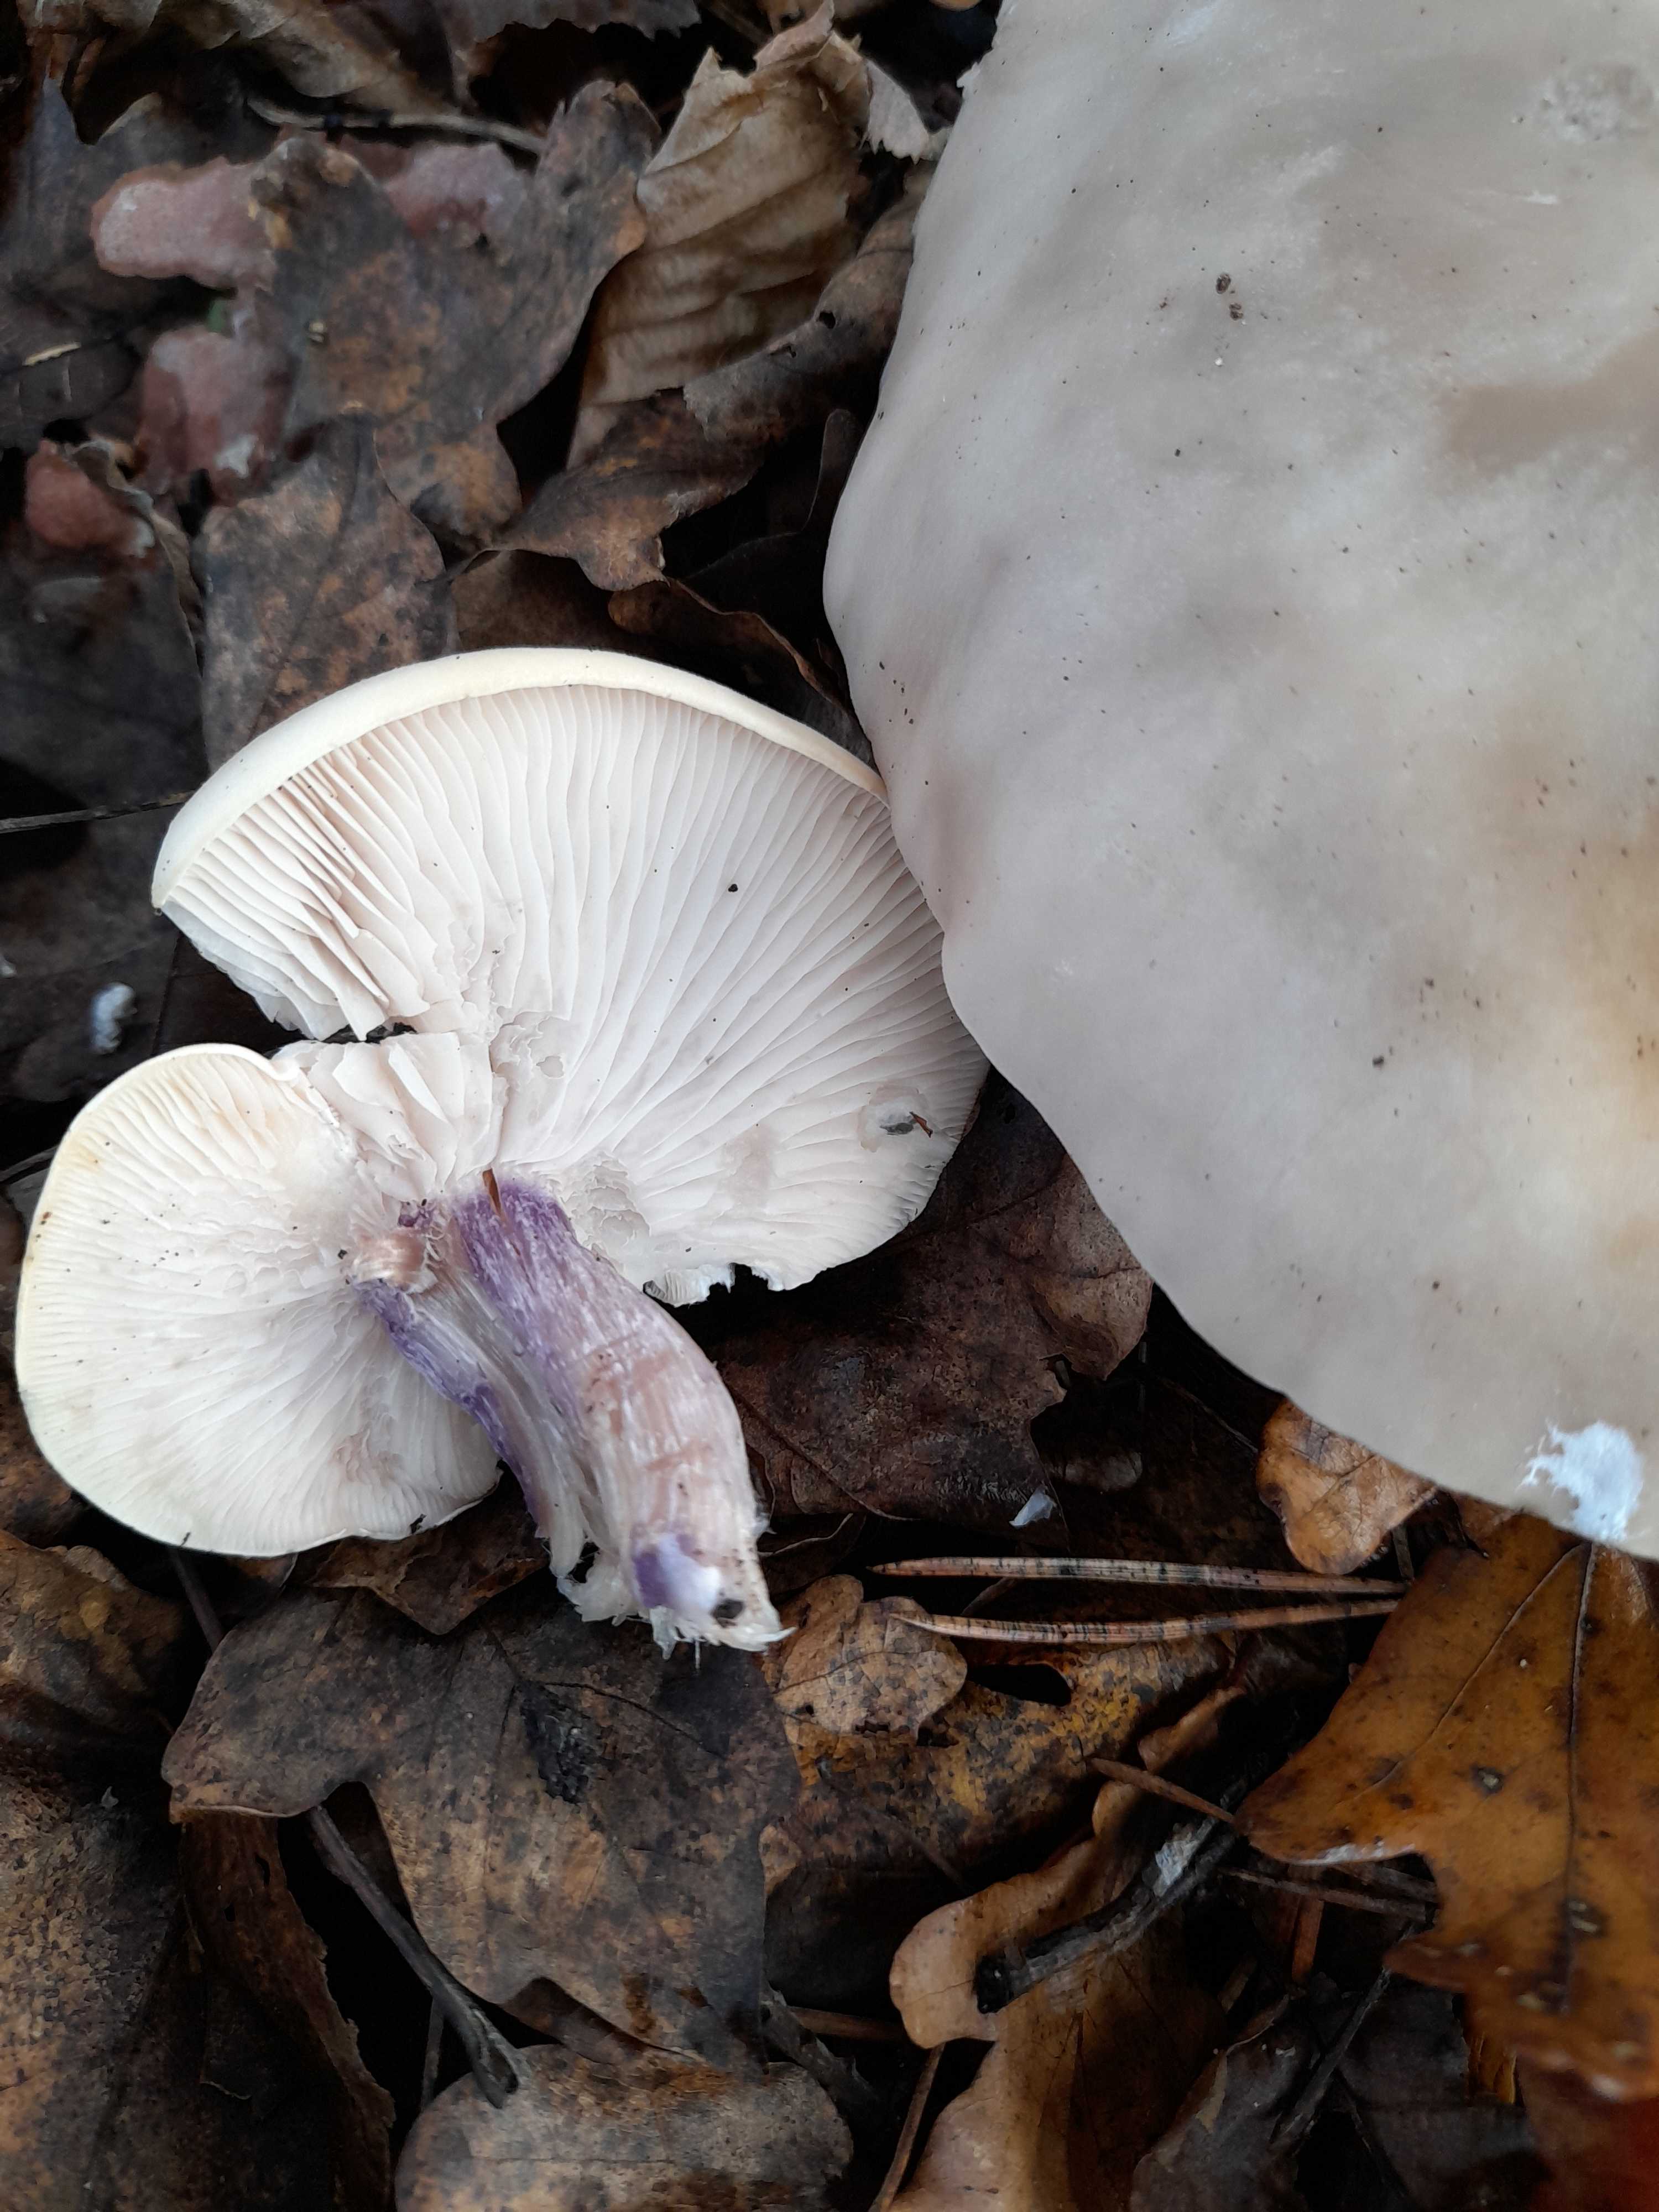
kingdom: Fungi
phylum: Basidiomycota
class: Agaricomycetes
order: Agaricales
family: Tricholomataceae
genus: Lepista
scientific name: Lepista personata
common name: bleg hekseringshat
